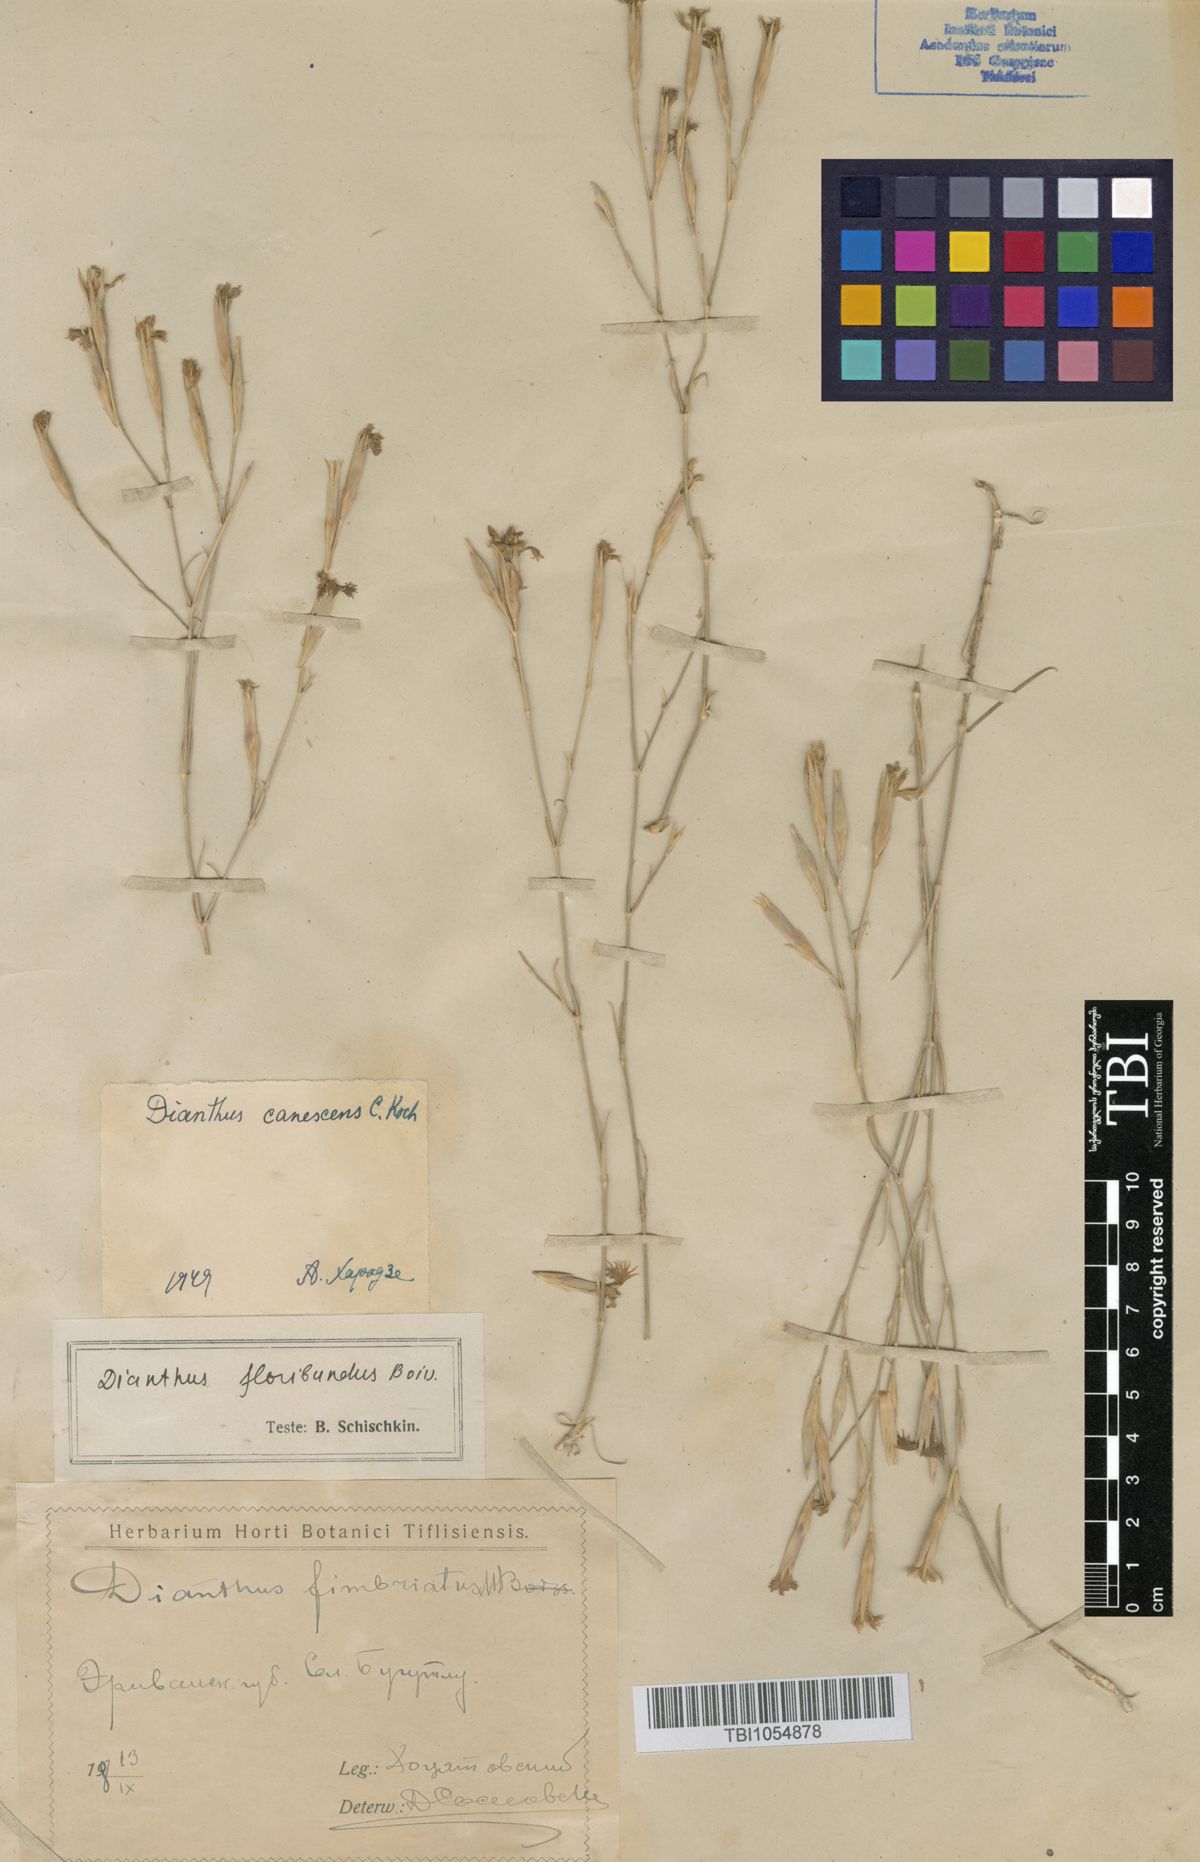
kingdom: Plantae
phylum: Tracheophyta
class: Magnoliopsida
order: Caryophyllales
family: Caryophyllaceae
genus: Dianthus
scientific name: Dianthus orientalis
